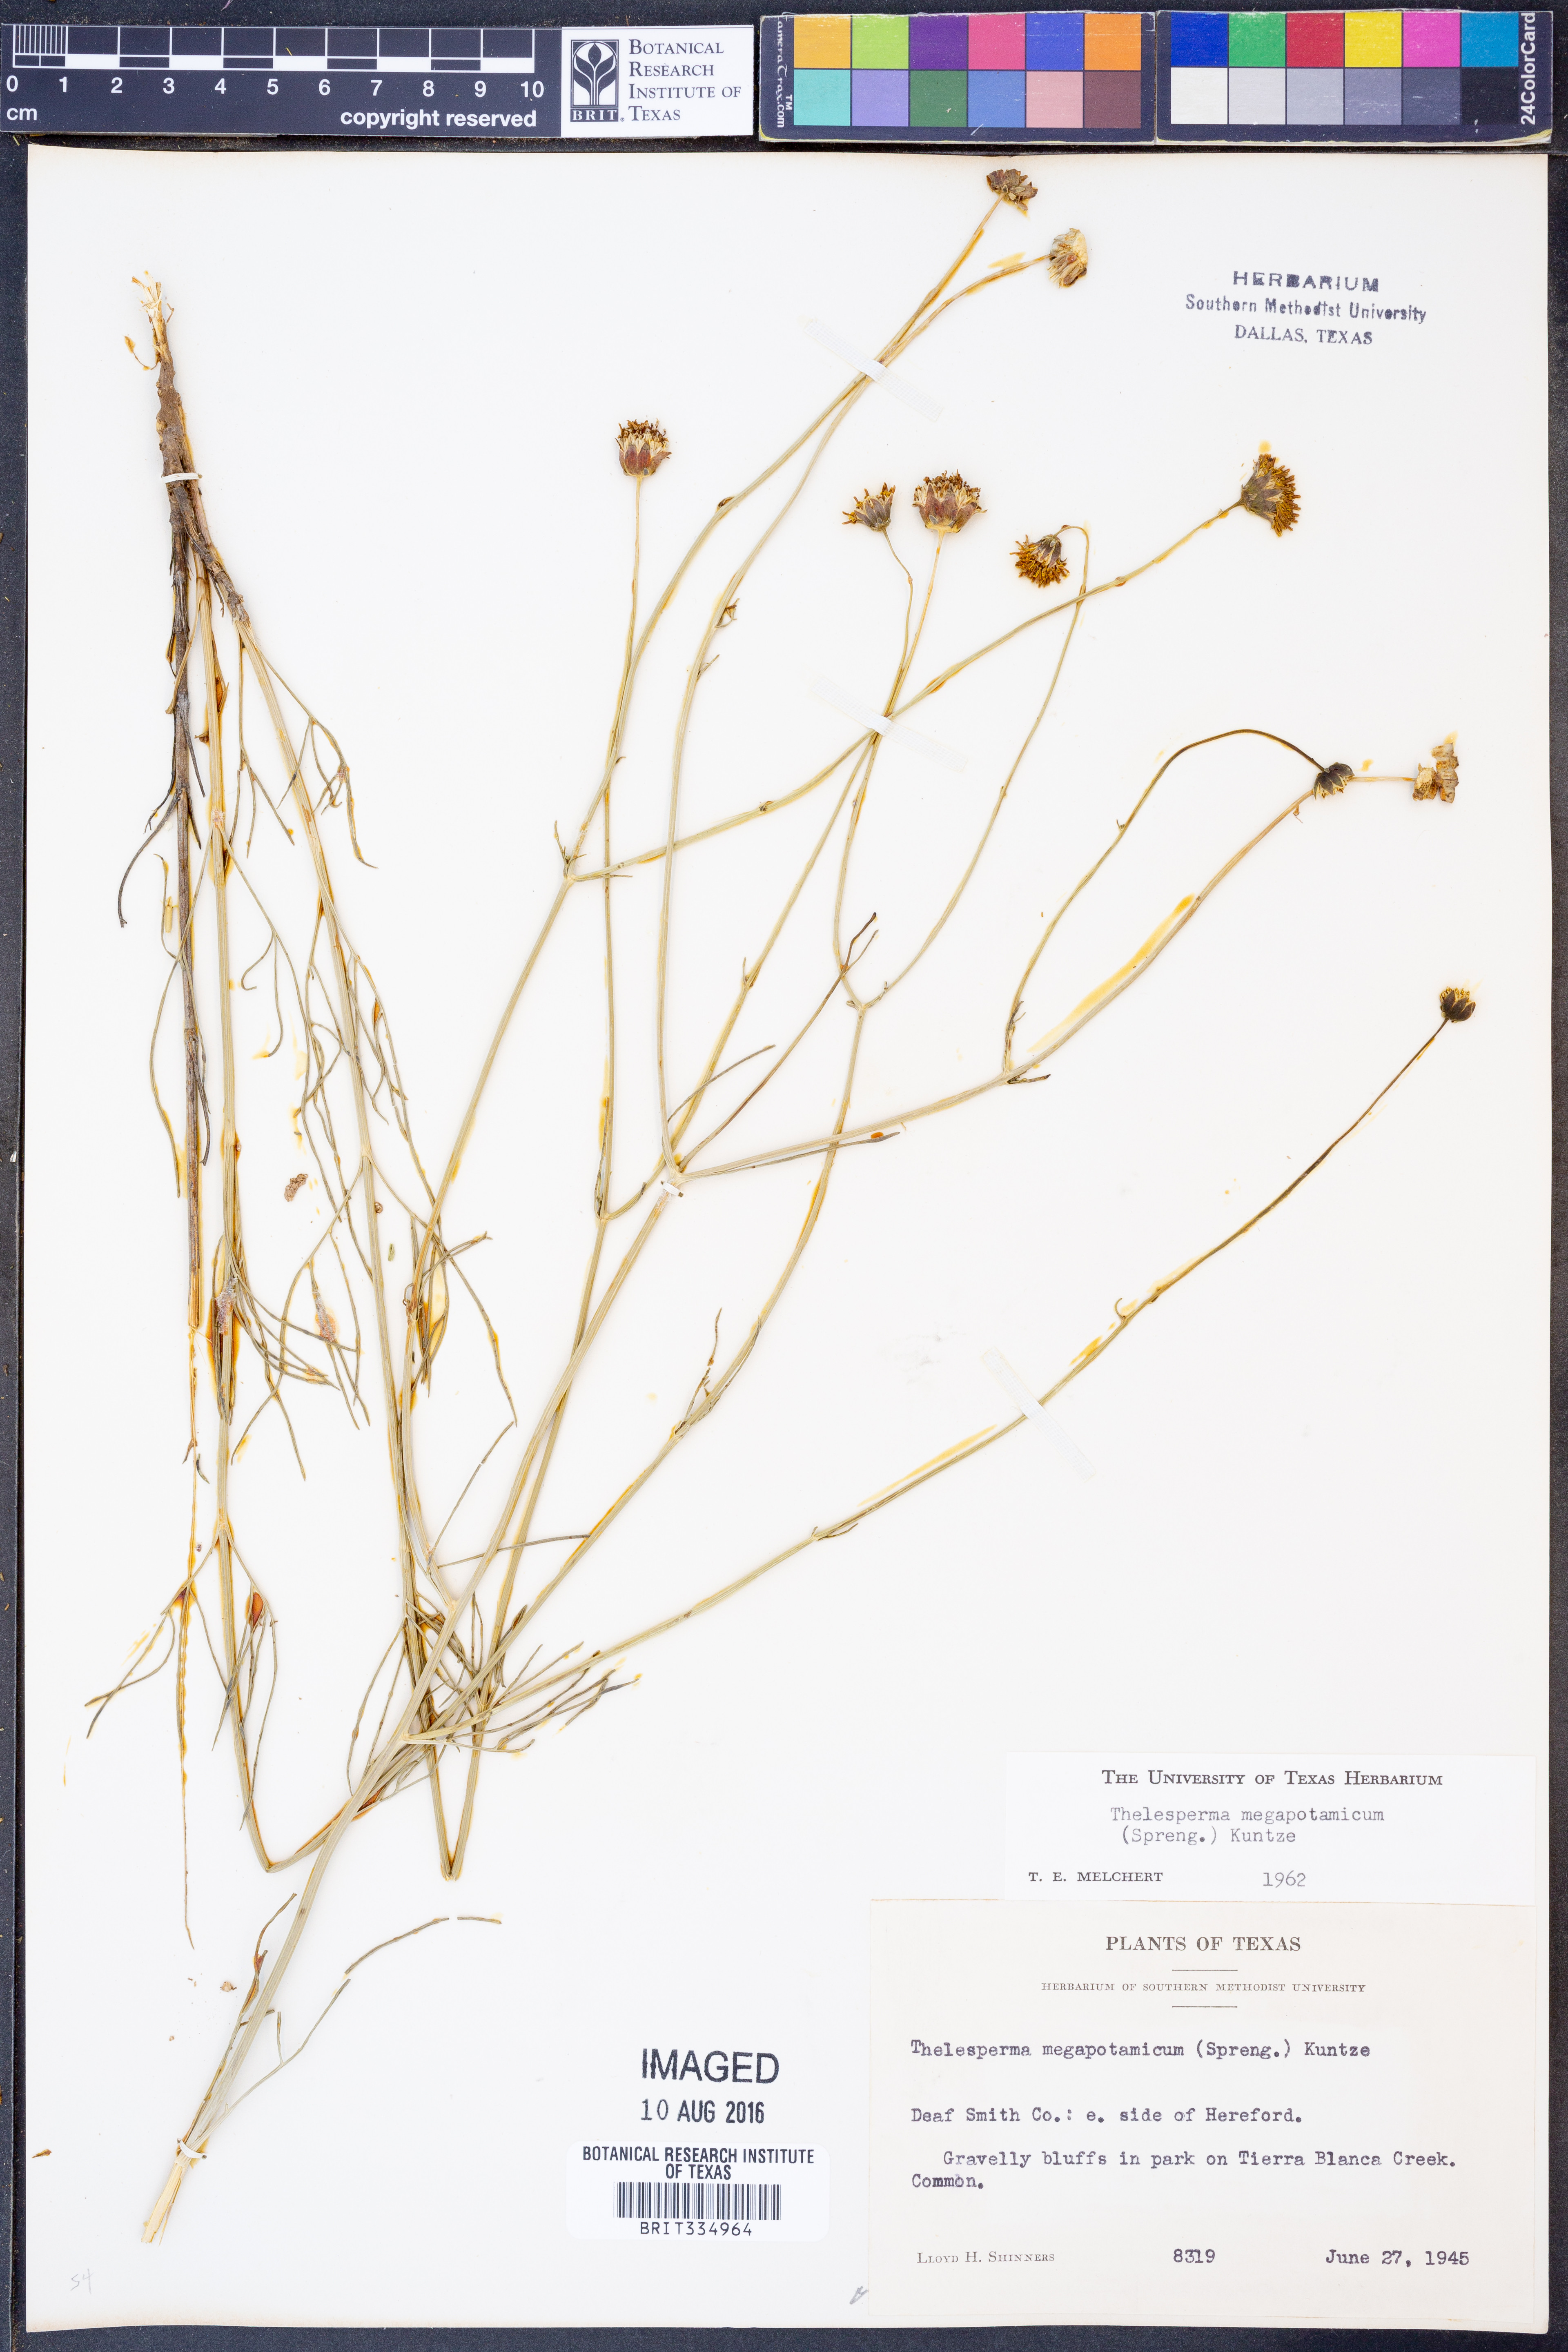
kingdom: Plantae
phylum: Tracheophyta
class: Magnoliopsida
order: Asterales
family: Asteraceae
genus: Thelesperma
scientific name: Thelesperma megapotamicum
